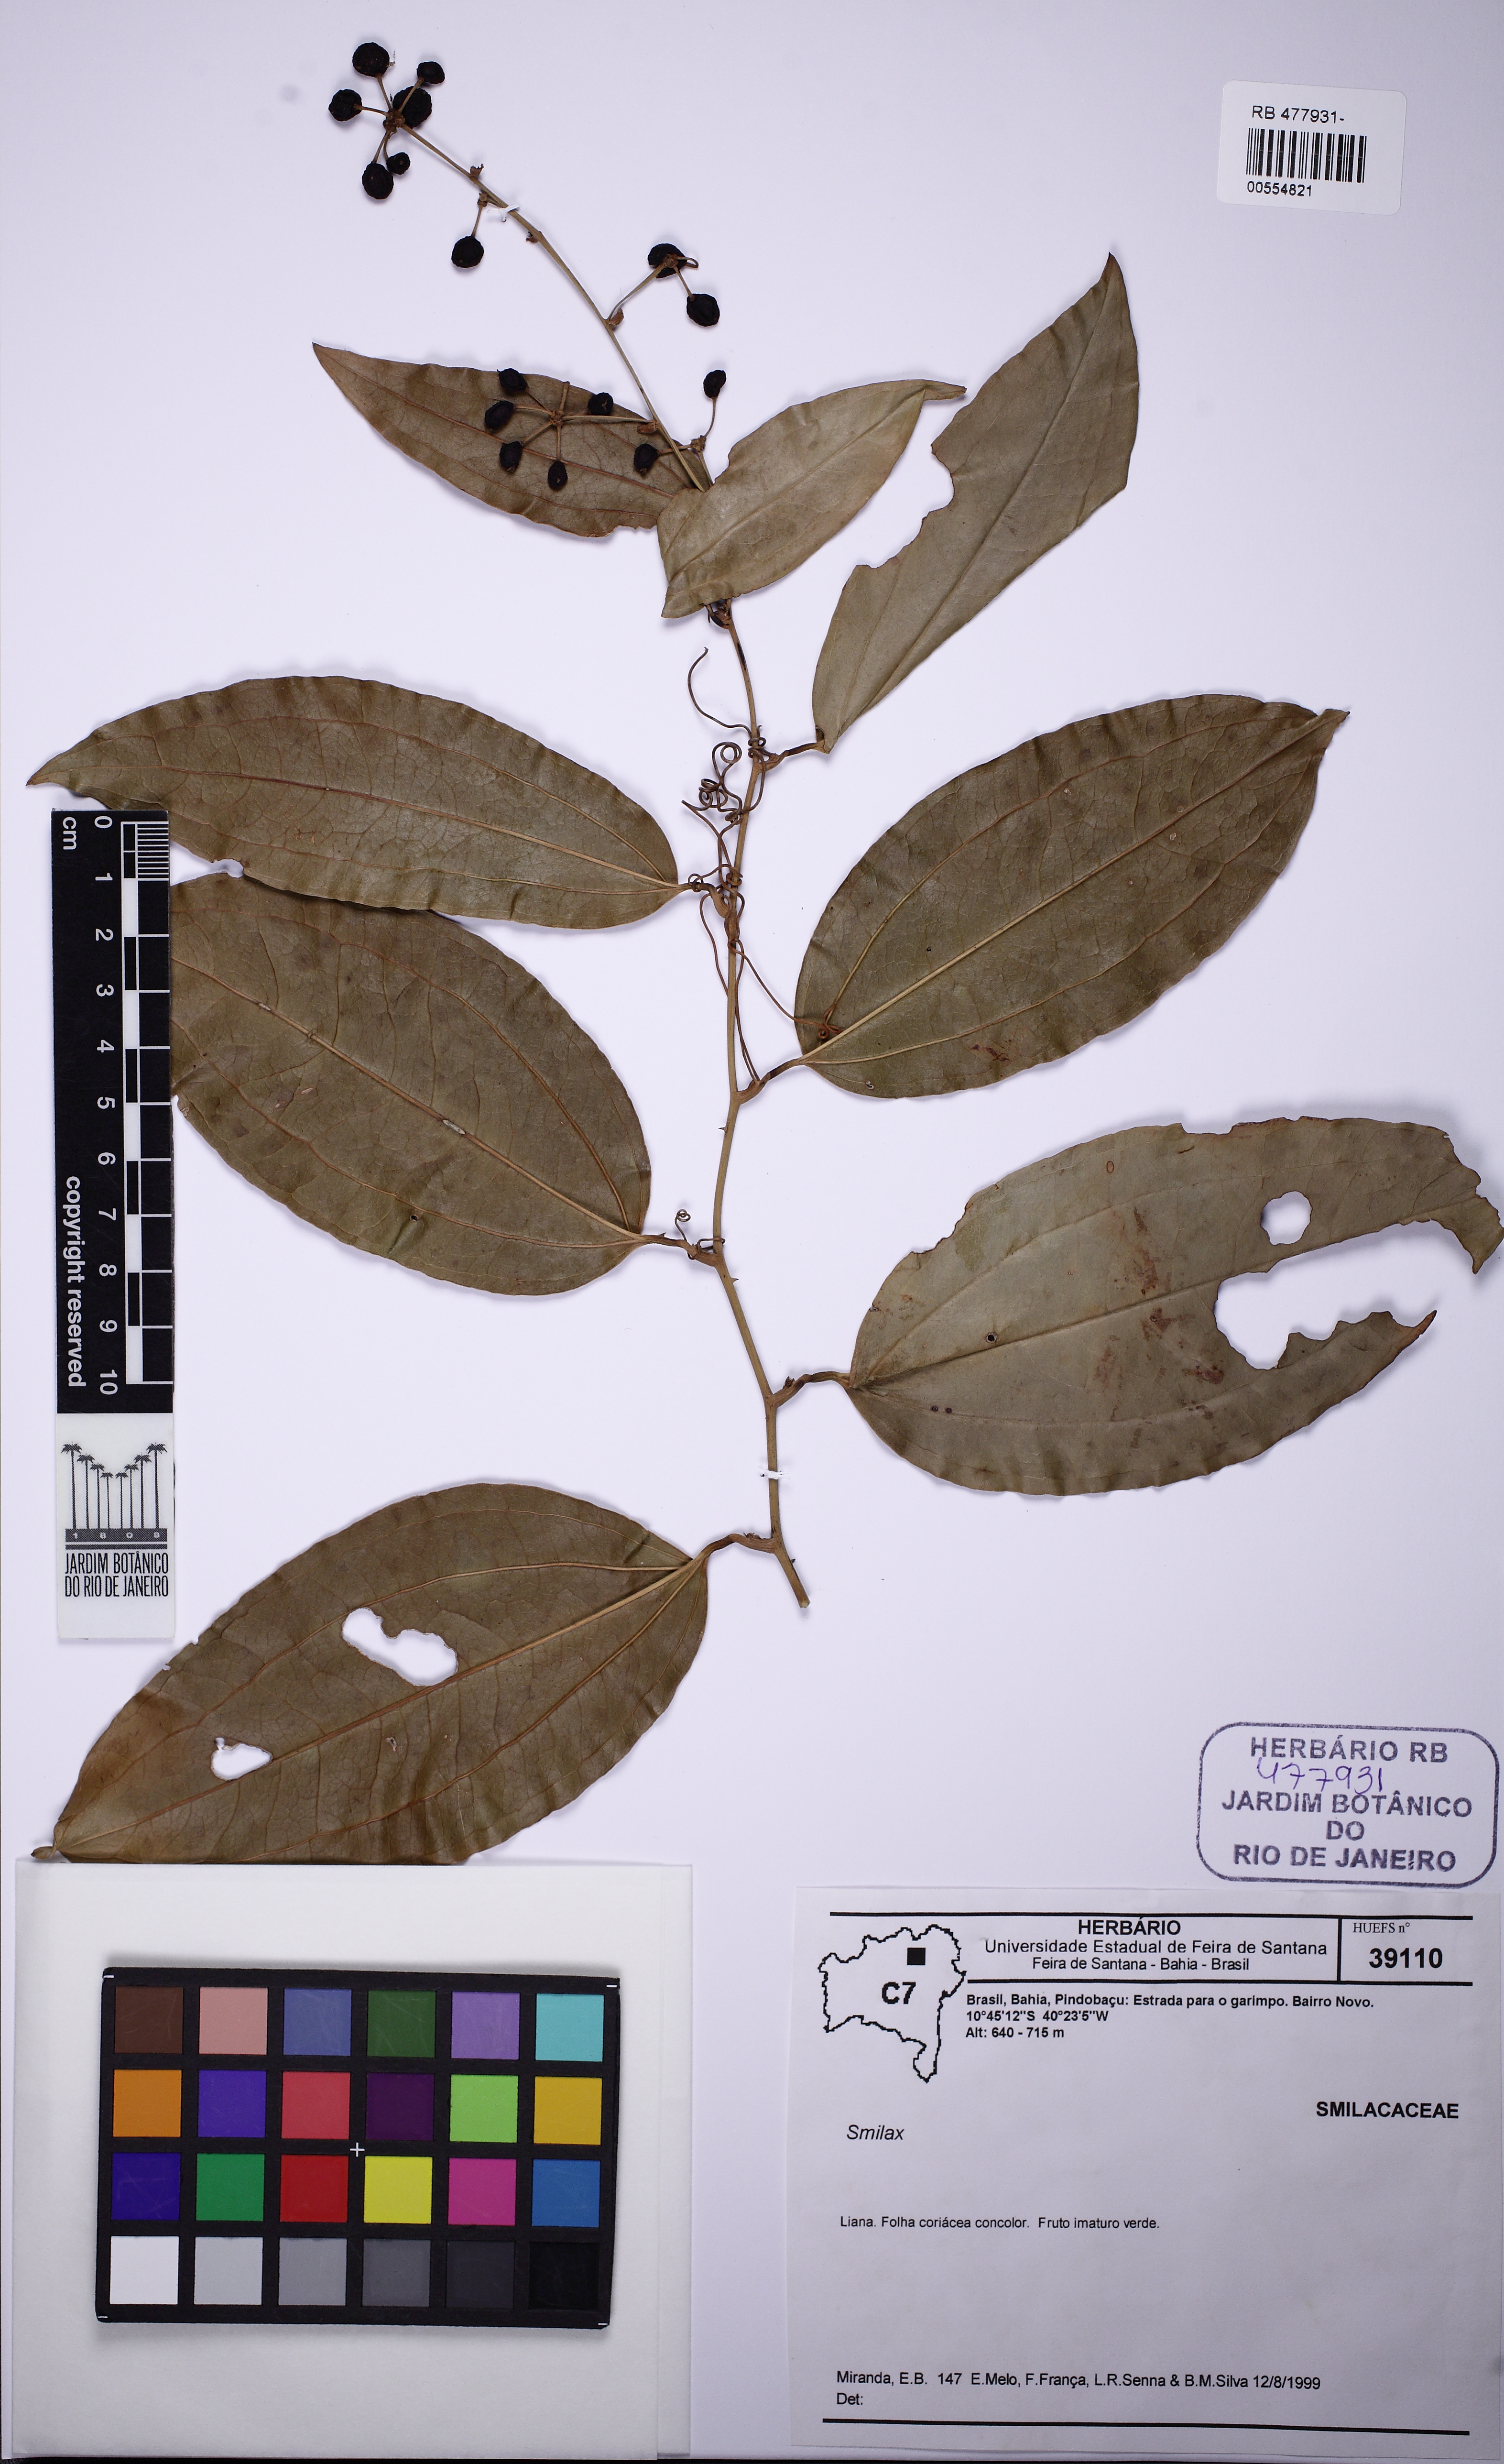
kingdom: Plantae
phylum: Tracheophyta
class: Liliopsida
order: Liliales
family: Smilacaceae
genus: Smilax
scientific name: Smilax
